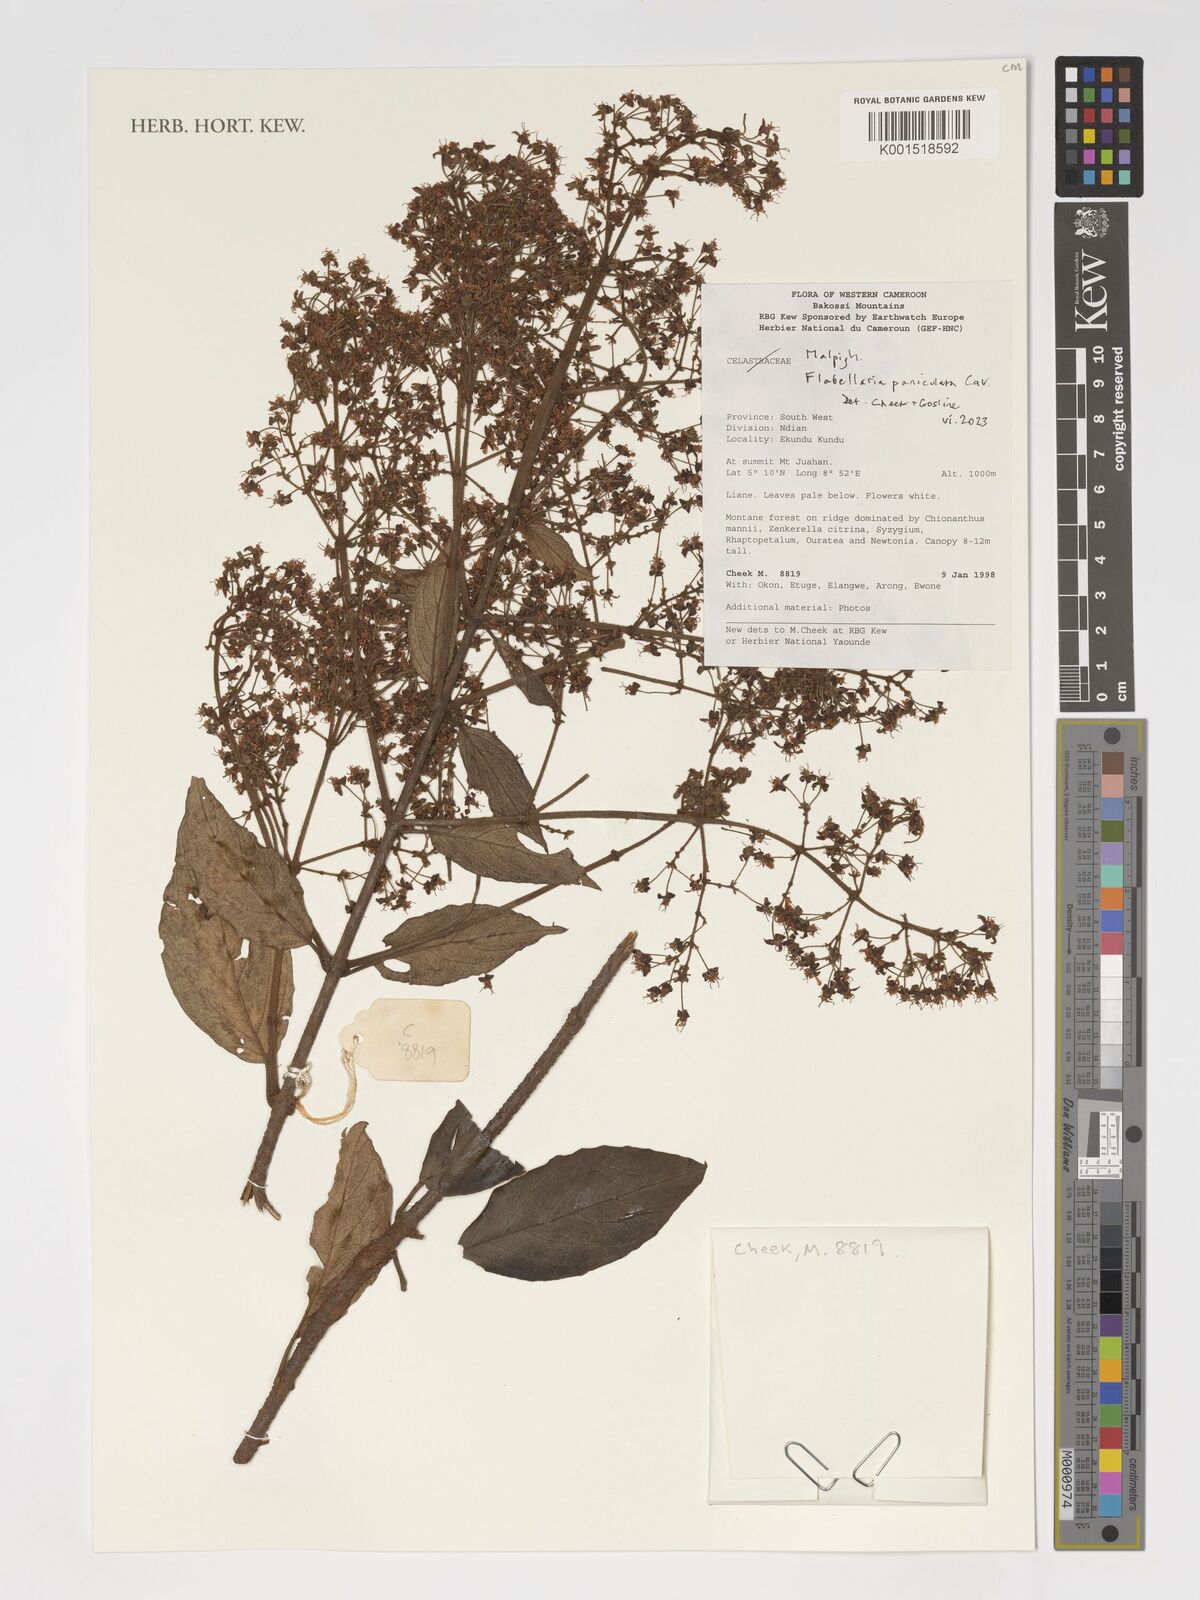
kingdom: Plantae
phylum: Tracheophyta
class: Magnoliopsida
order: Malpighiales
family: Malpighiaceae
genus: Flabellaria
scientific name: Flabellaria paniculata
